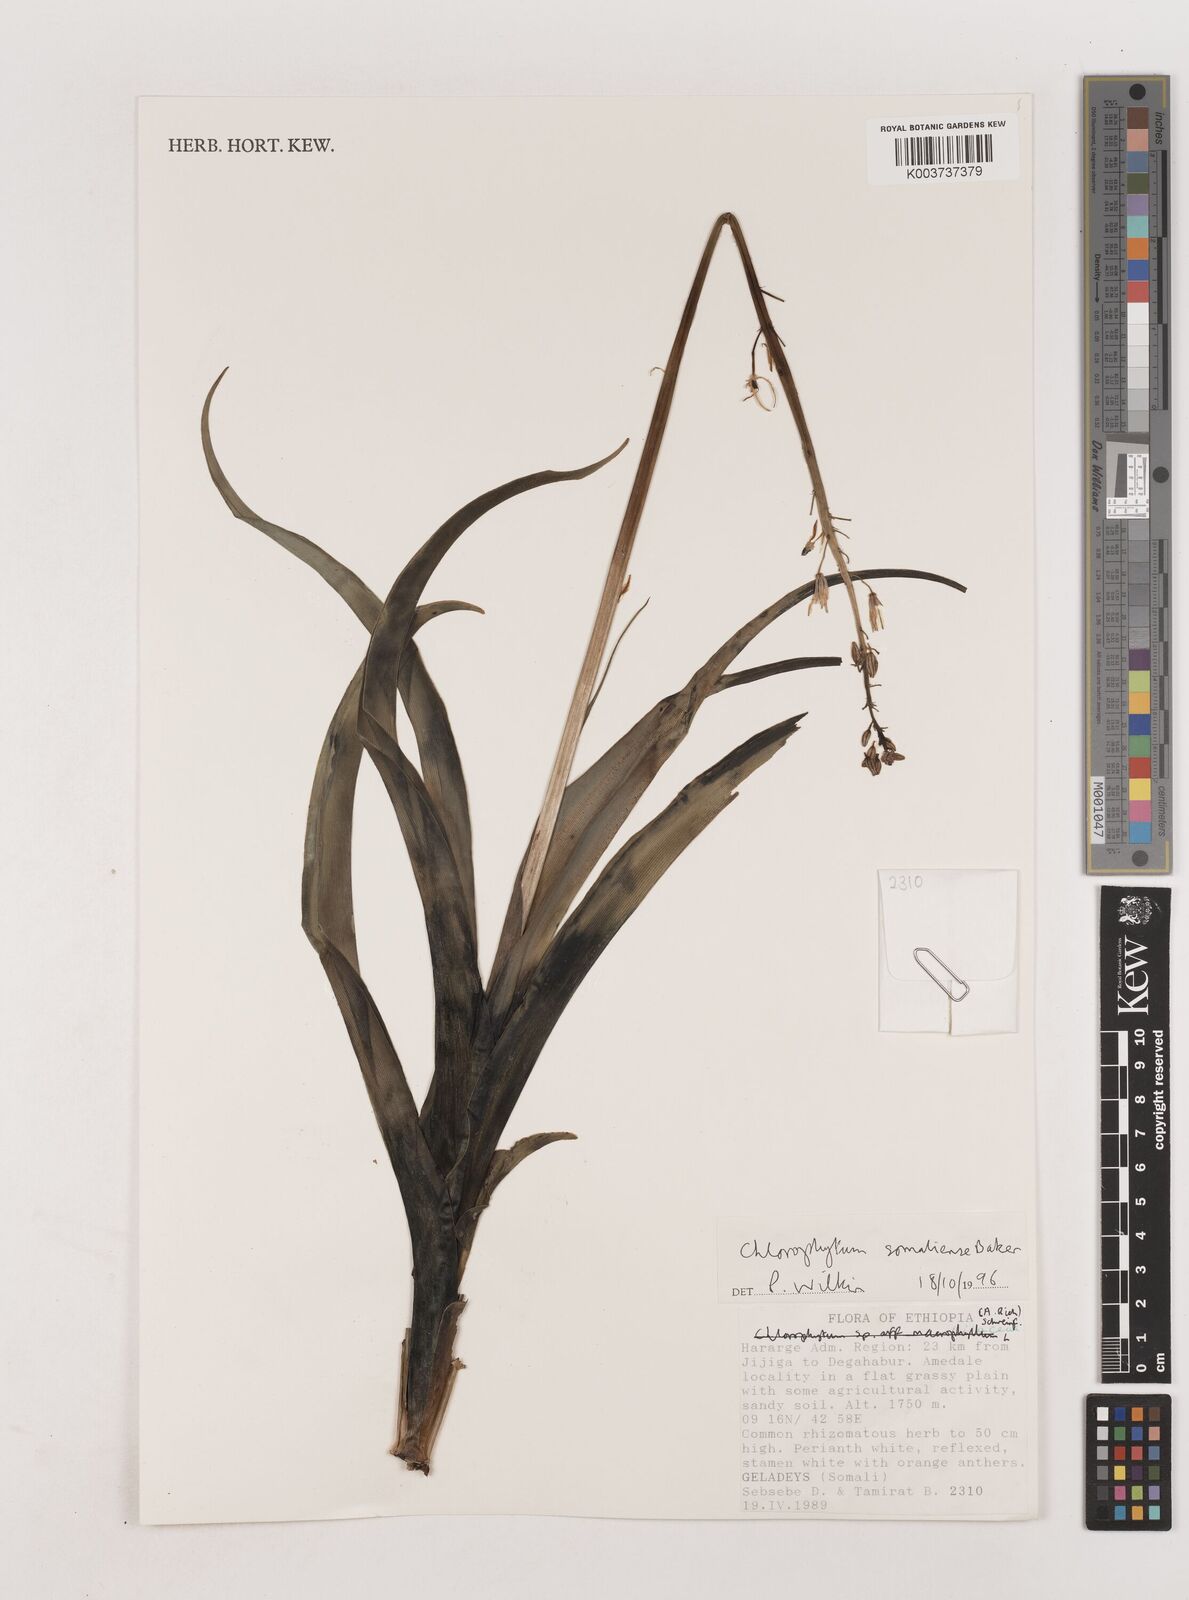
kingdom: Plantae
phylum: Tracheophyta
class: Liliopsida
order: Asparagales
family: Asparagaceae
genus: Chlorophytum
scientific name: Chlorophytum somaliense
